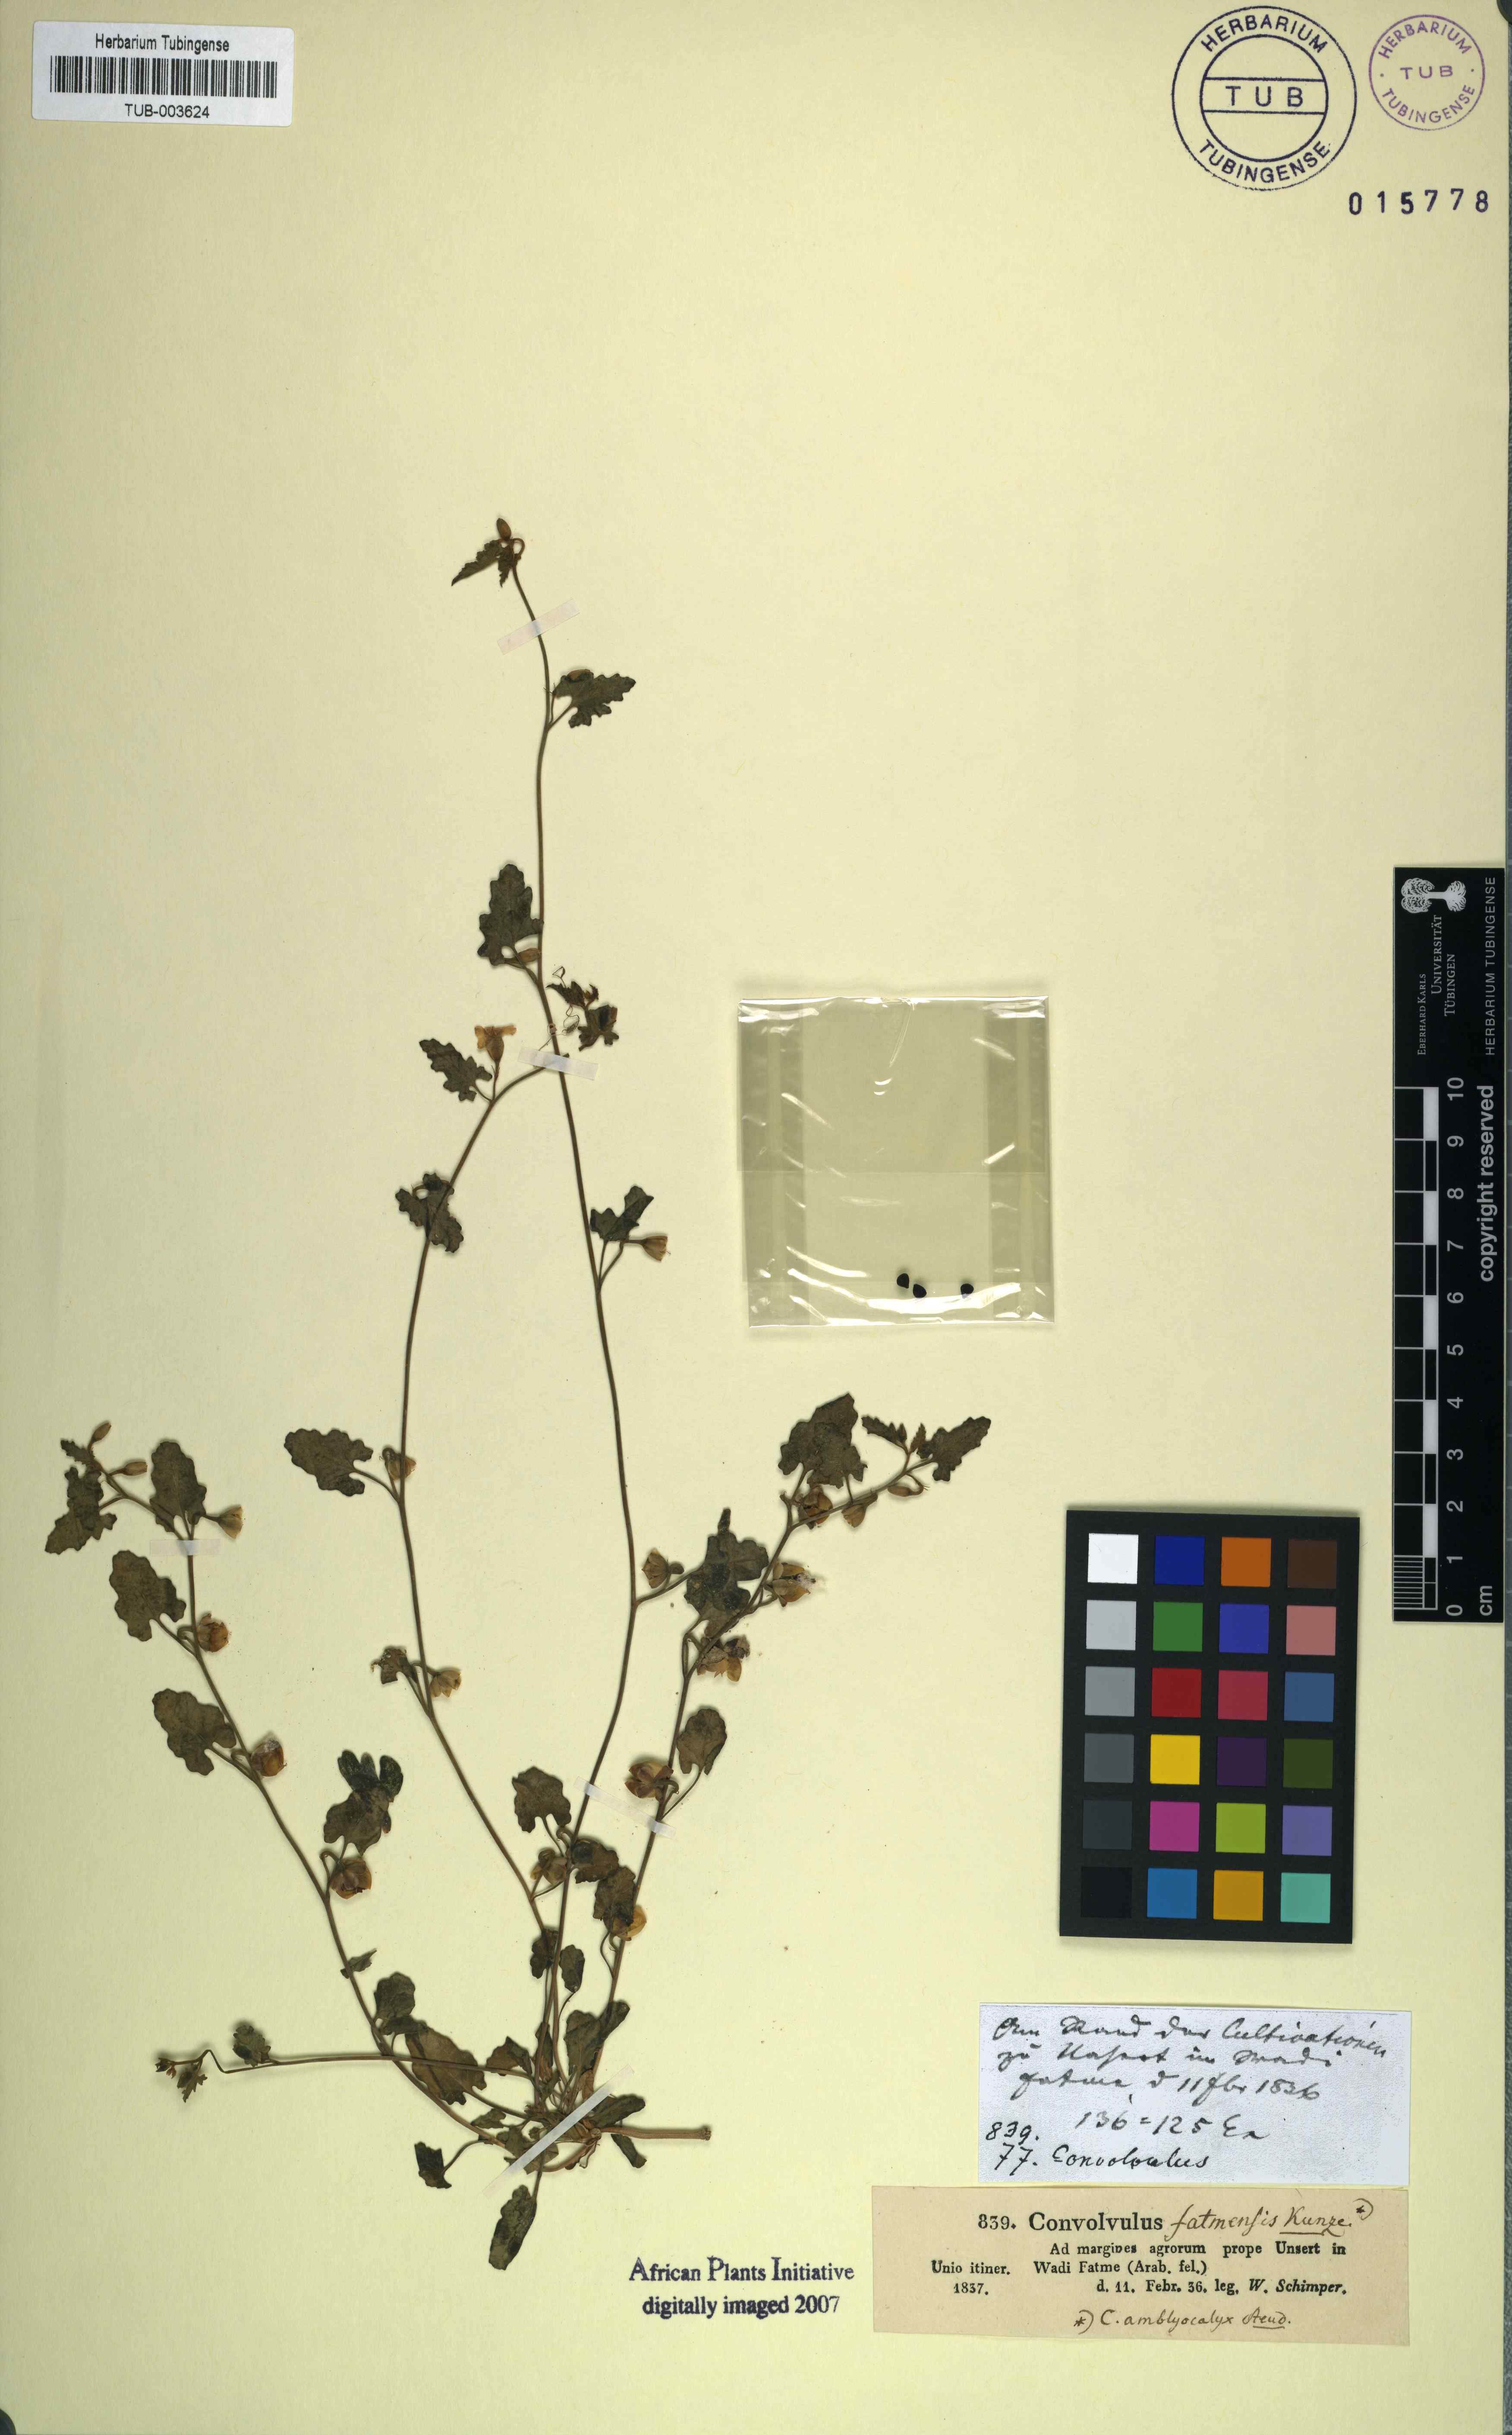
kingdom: Plantae
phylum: Tracheophyta
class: Magnoliopsida
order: Solanales
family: Convolvulaceae
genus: Convolvulus
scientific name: Convolvulus fatmensis
